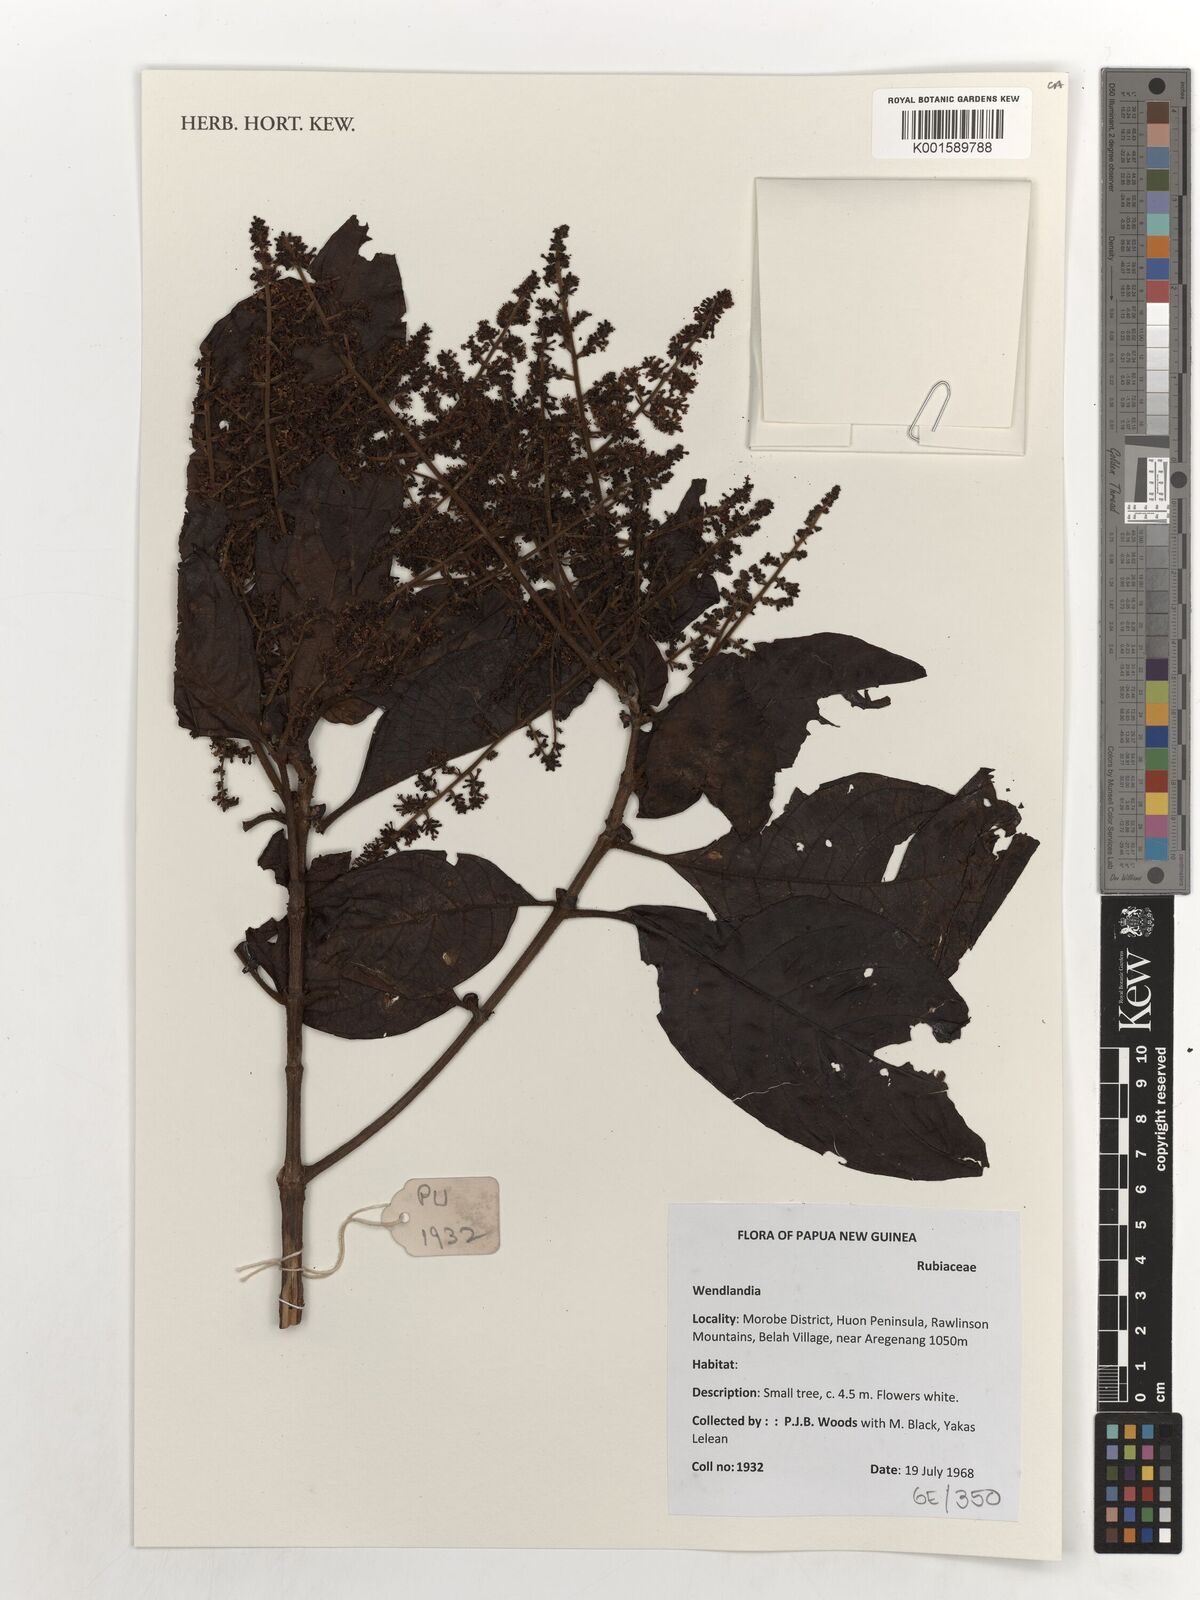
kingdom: Plantae
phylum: Tracheophyta
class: Magnoliopsida
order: Gentianales
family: Rubiaceae
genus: Wendlandia
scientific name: Wendlandia
